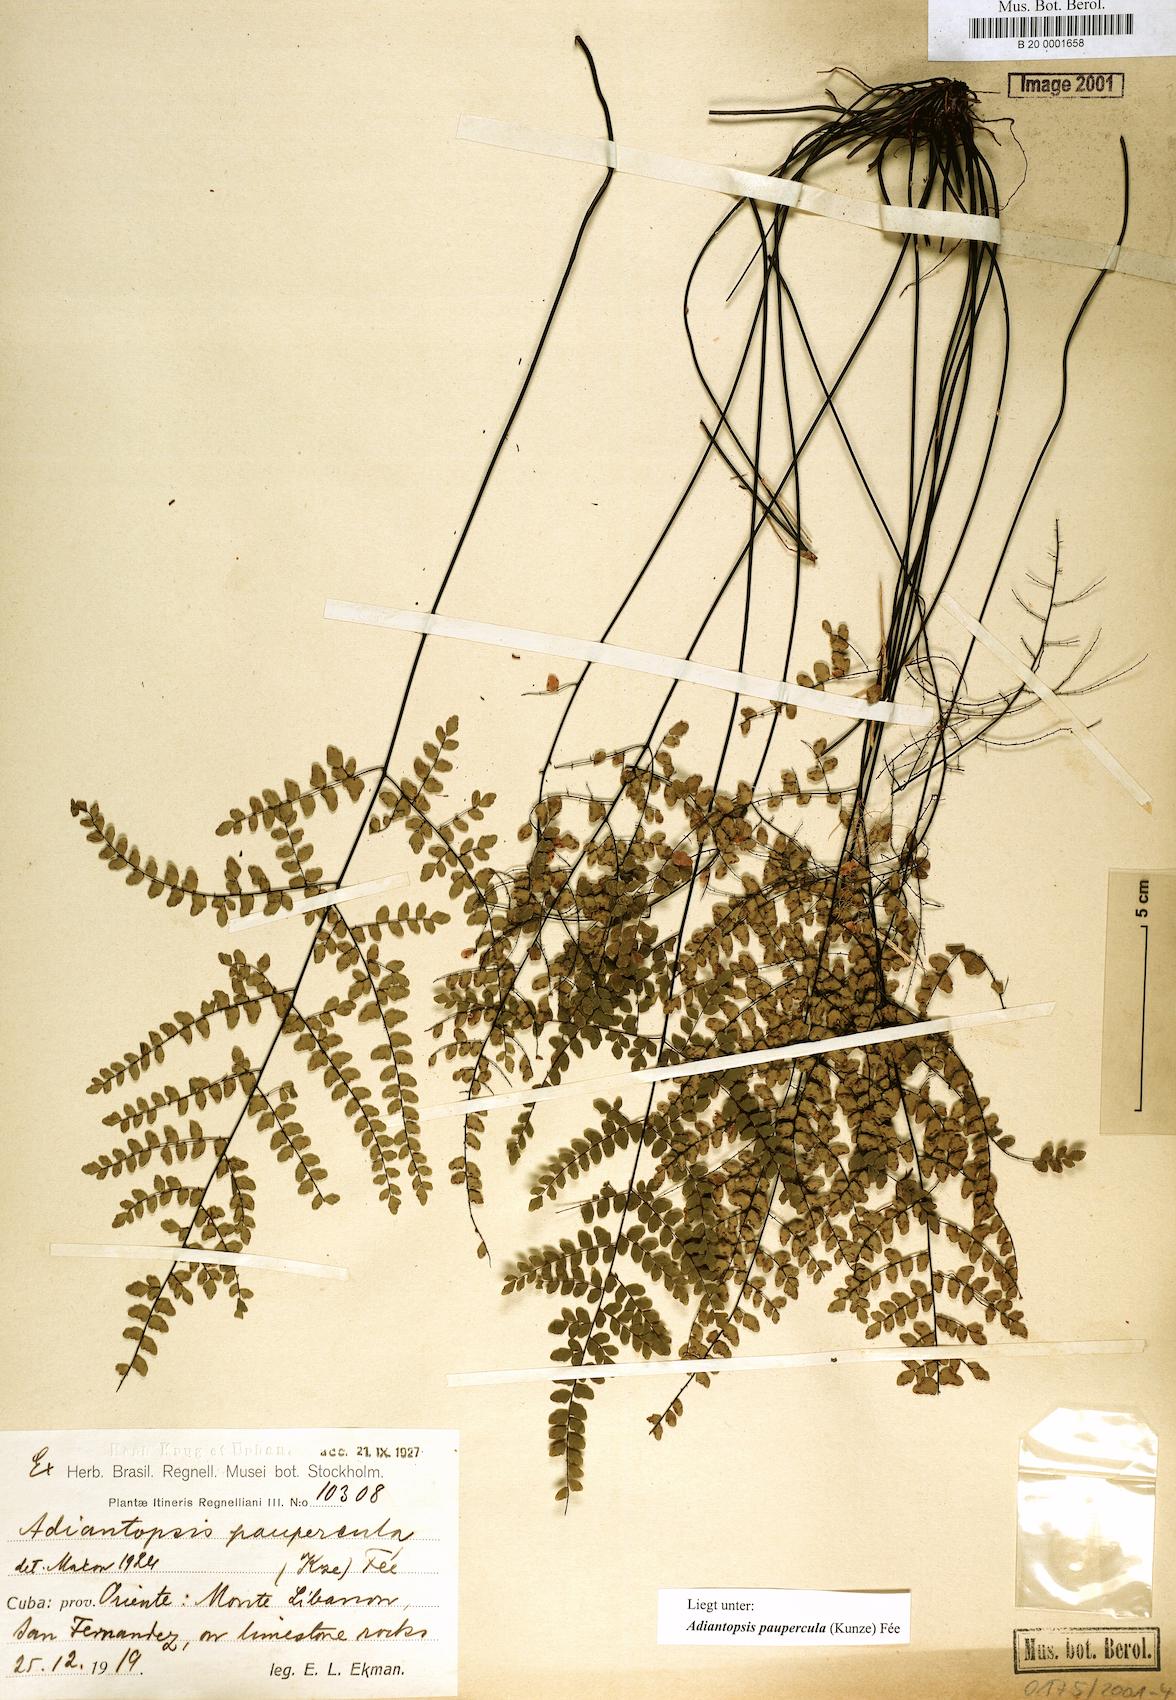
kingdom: Plantae
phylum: Tracheophyta
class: Polypodiopsida
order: Polypodiales
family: Pteridaceae
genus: Adiantopsis
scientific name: Adiantopsis paupercula
